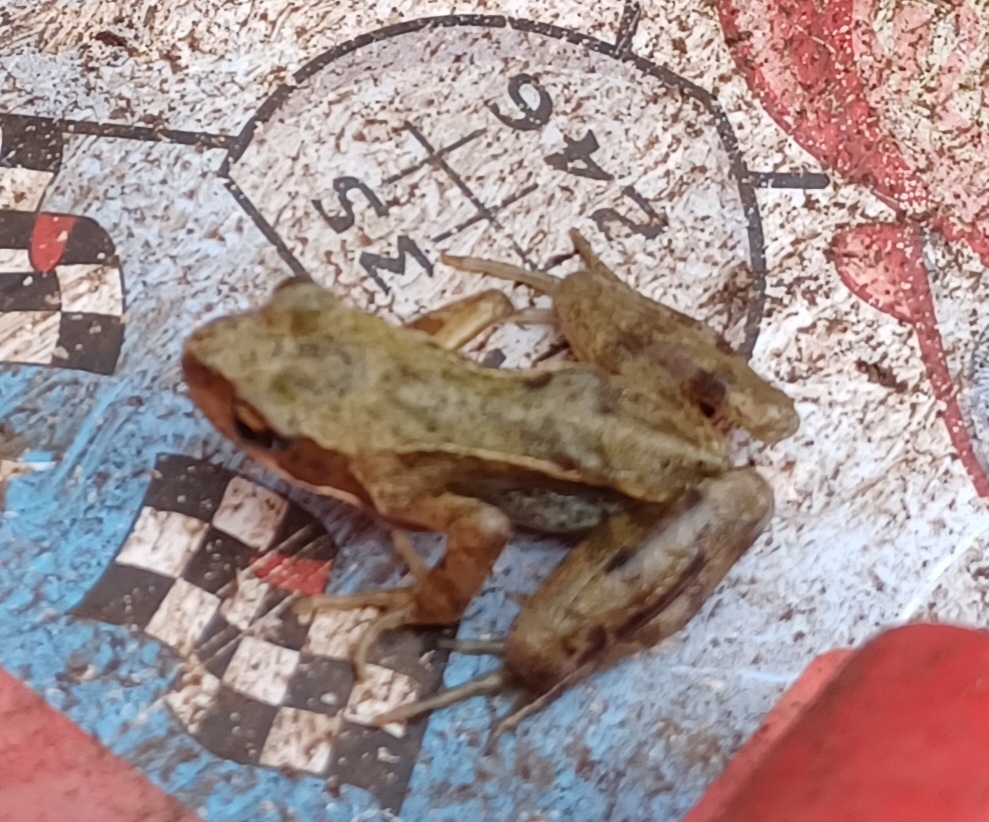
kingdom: Animalia
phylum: Chordata
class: Amphibia
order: Anura
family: Ranidae
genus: Rana
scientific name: Rana temporaria
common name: Butsnudet frø
